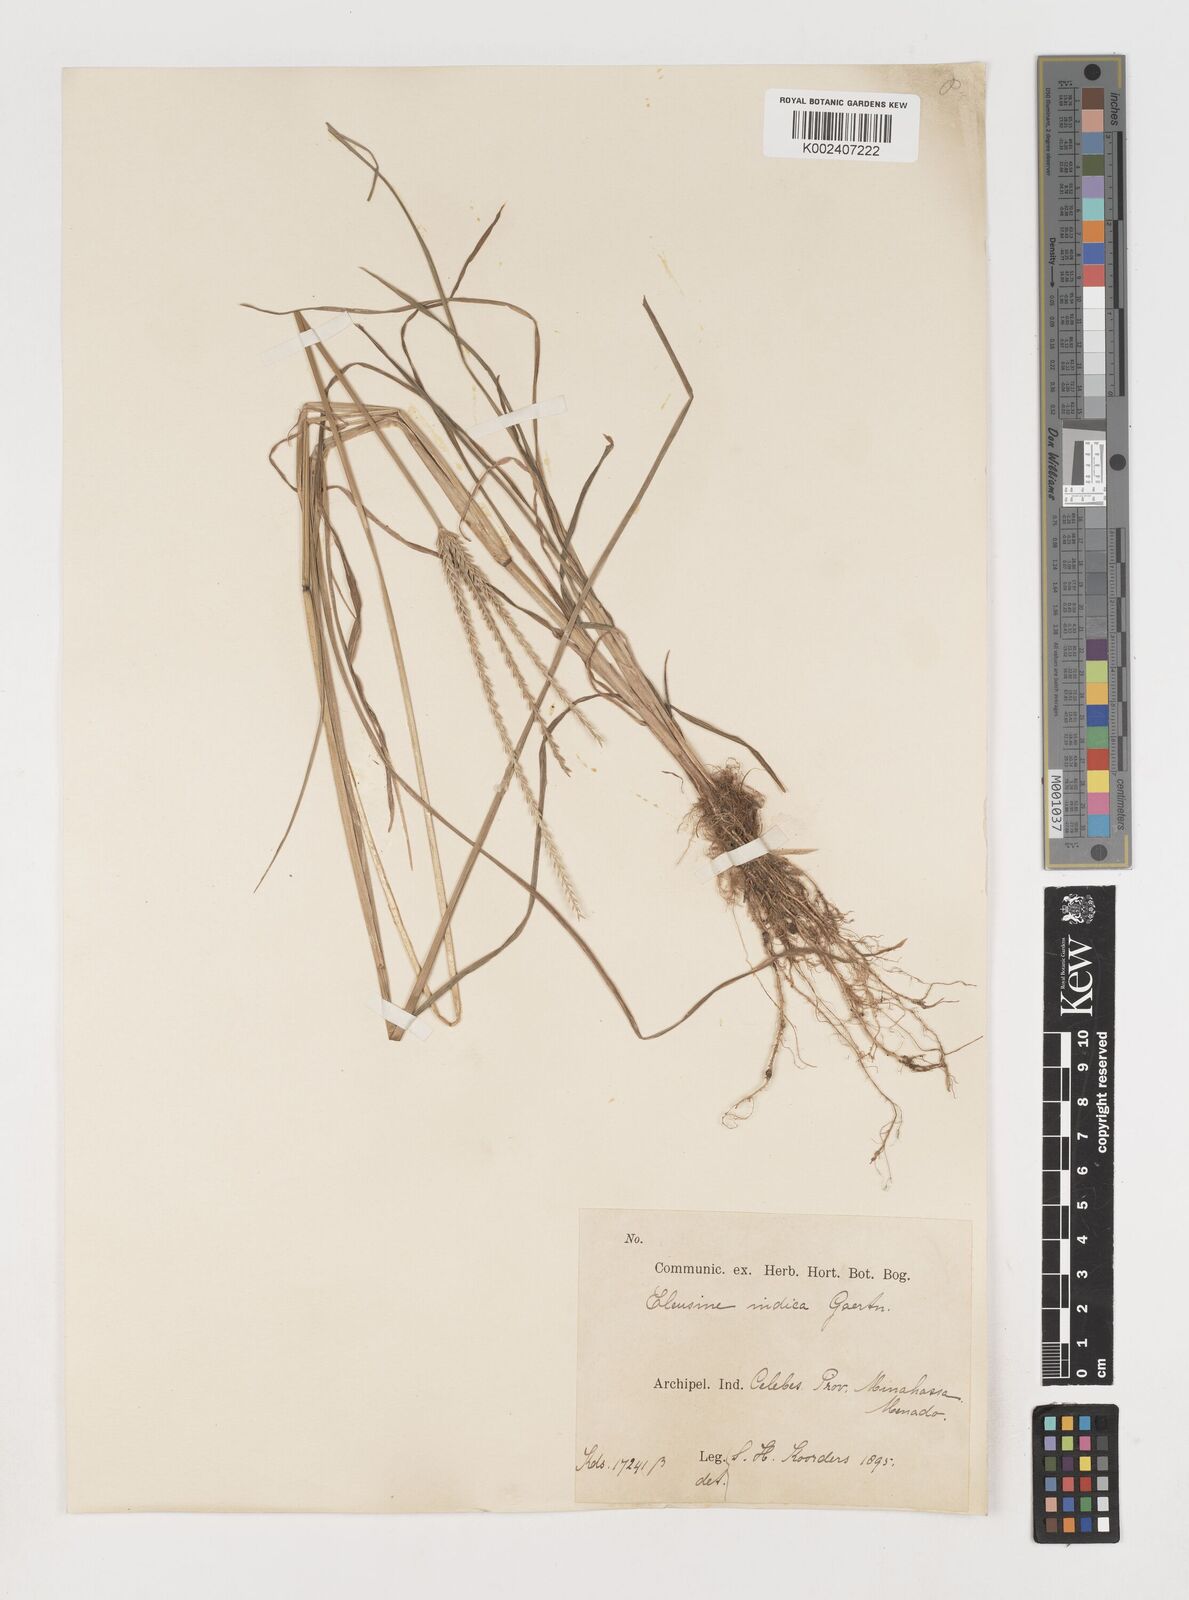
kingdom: Plantae
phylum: Tracheophyta
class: Liliopsida
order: Poales
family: Poaceae
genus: Eleusine
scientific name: Eleusine indica
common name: Yard-grass
